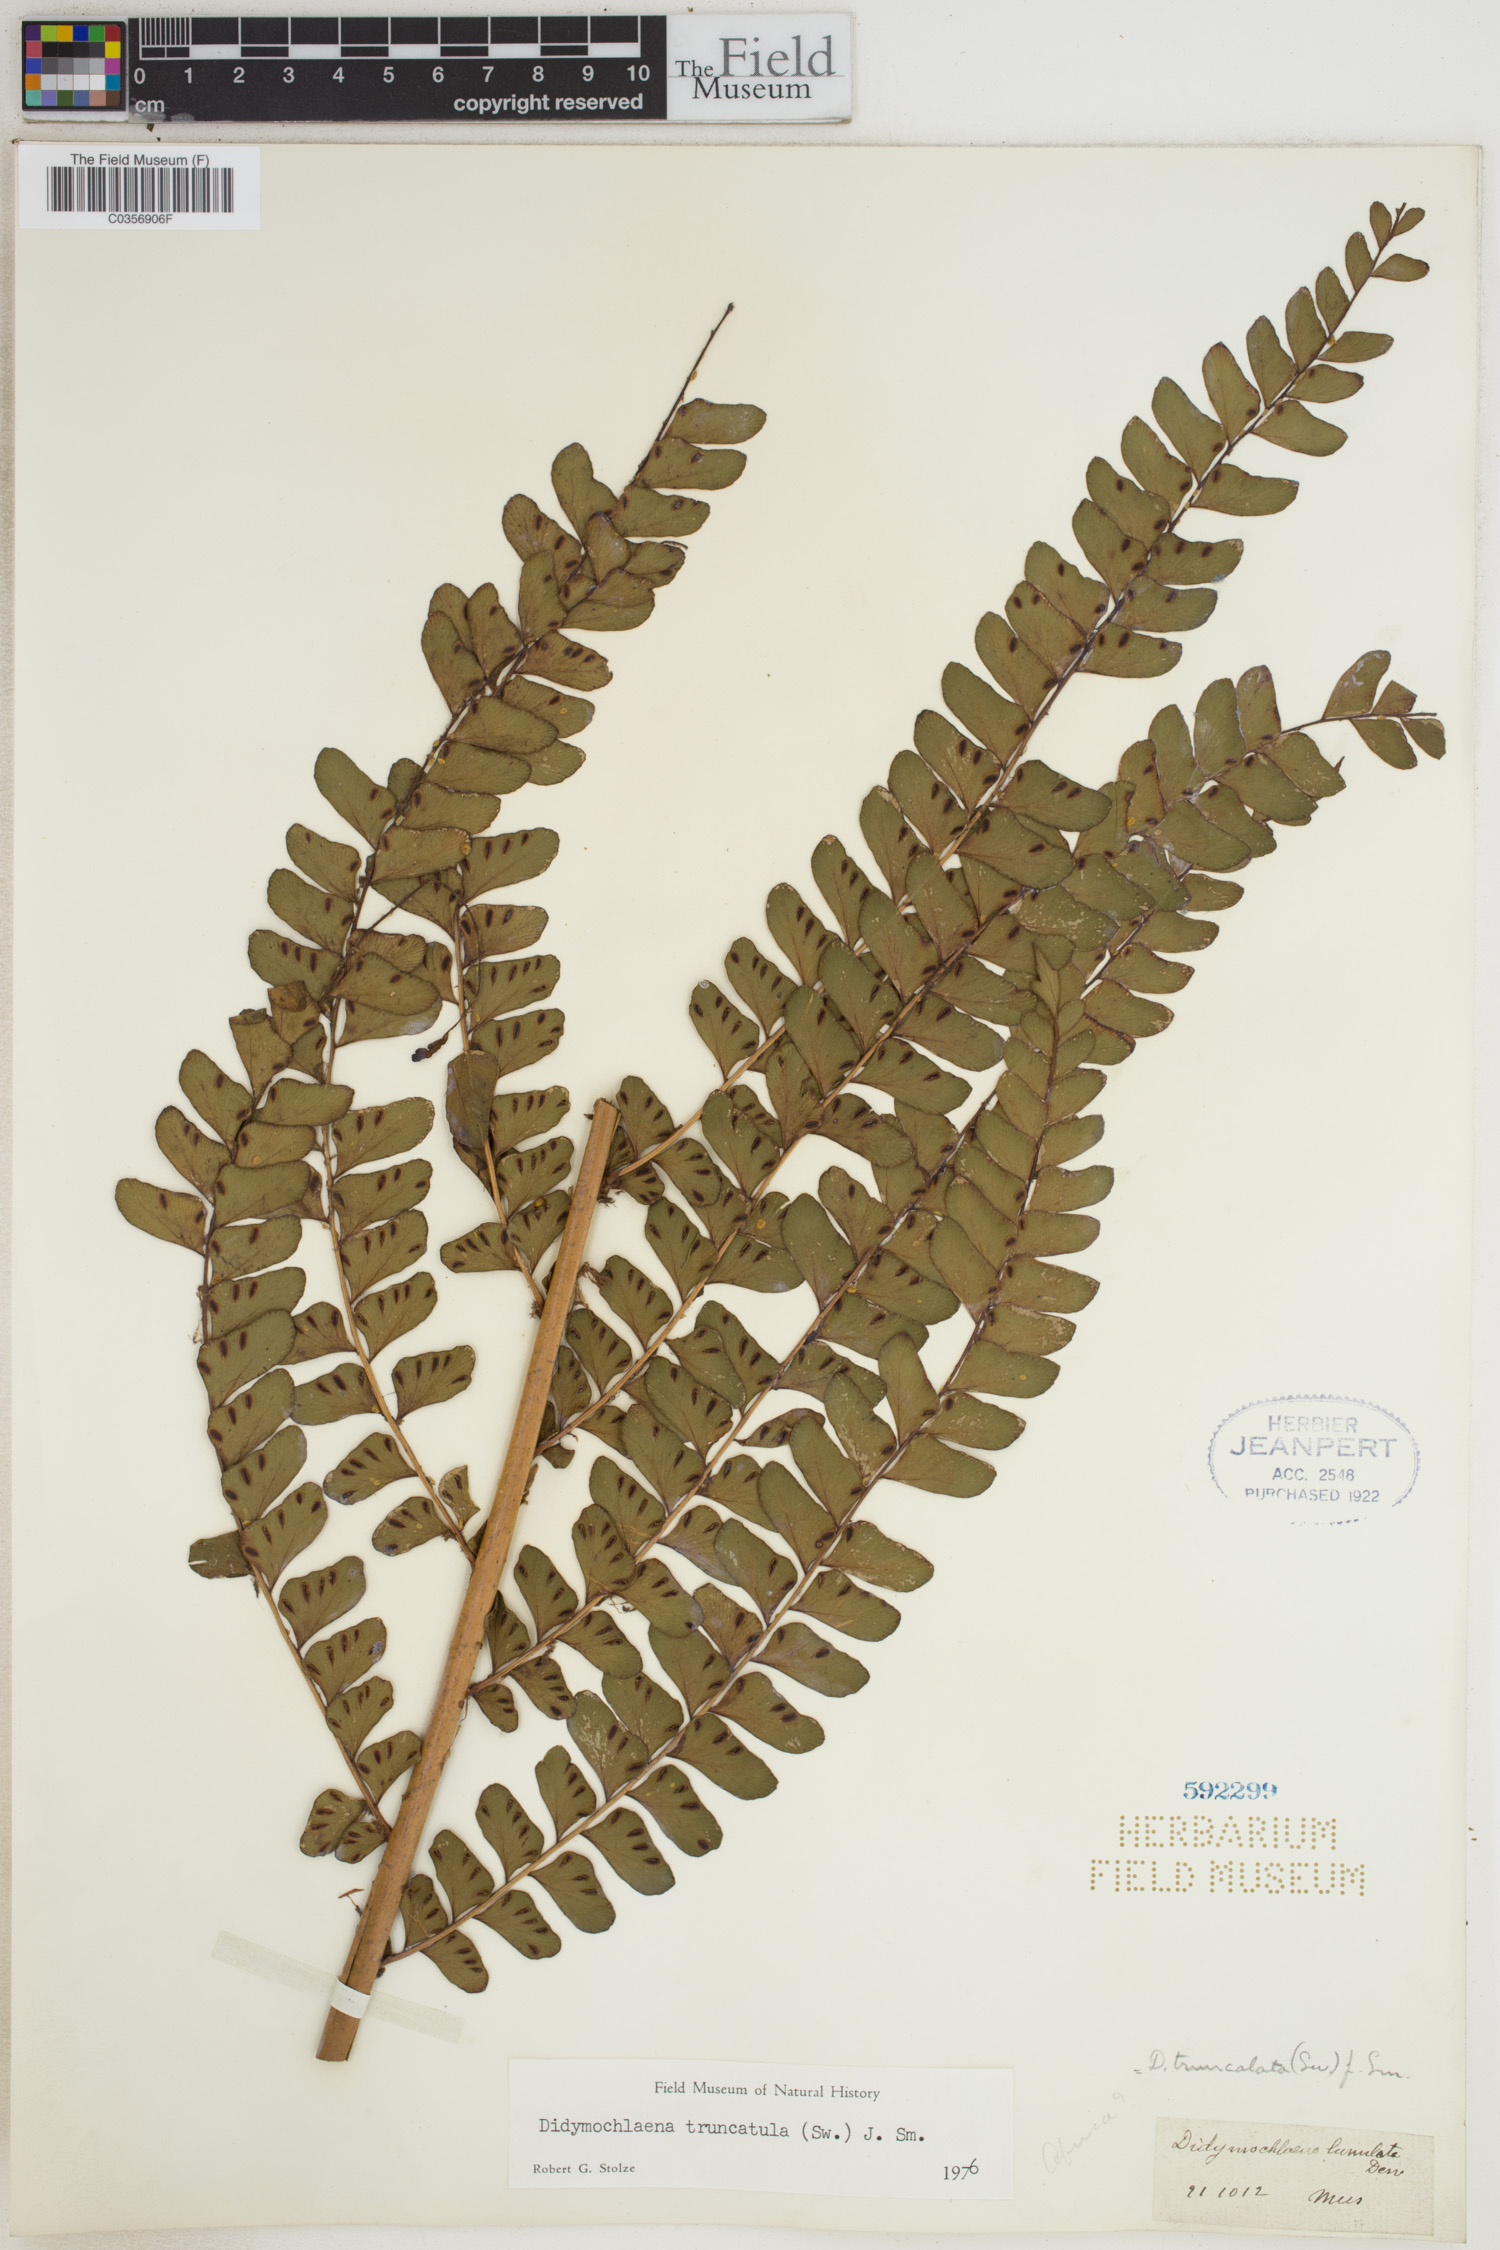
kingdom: Plantae
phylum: Tracheophyta
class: Polypodiopsida
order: Polypodiales
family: Didymochlaenaceae
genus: Didymochlaena
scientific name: Didymochlaena truncatula
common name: Mahogany fern
